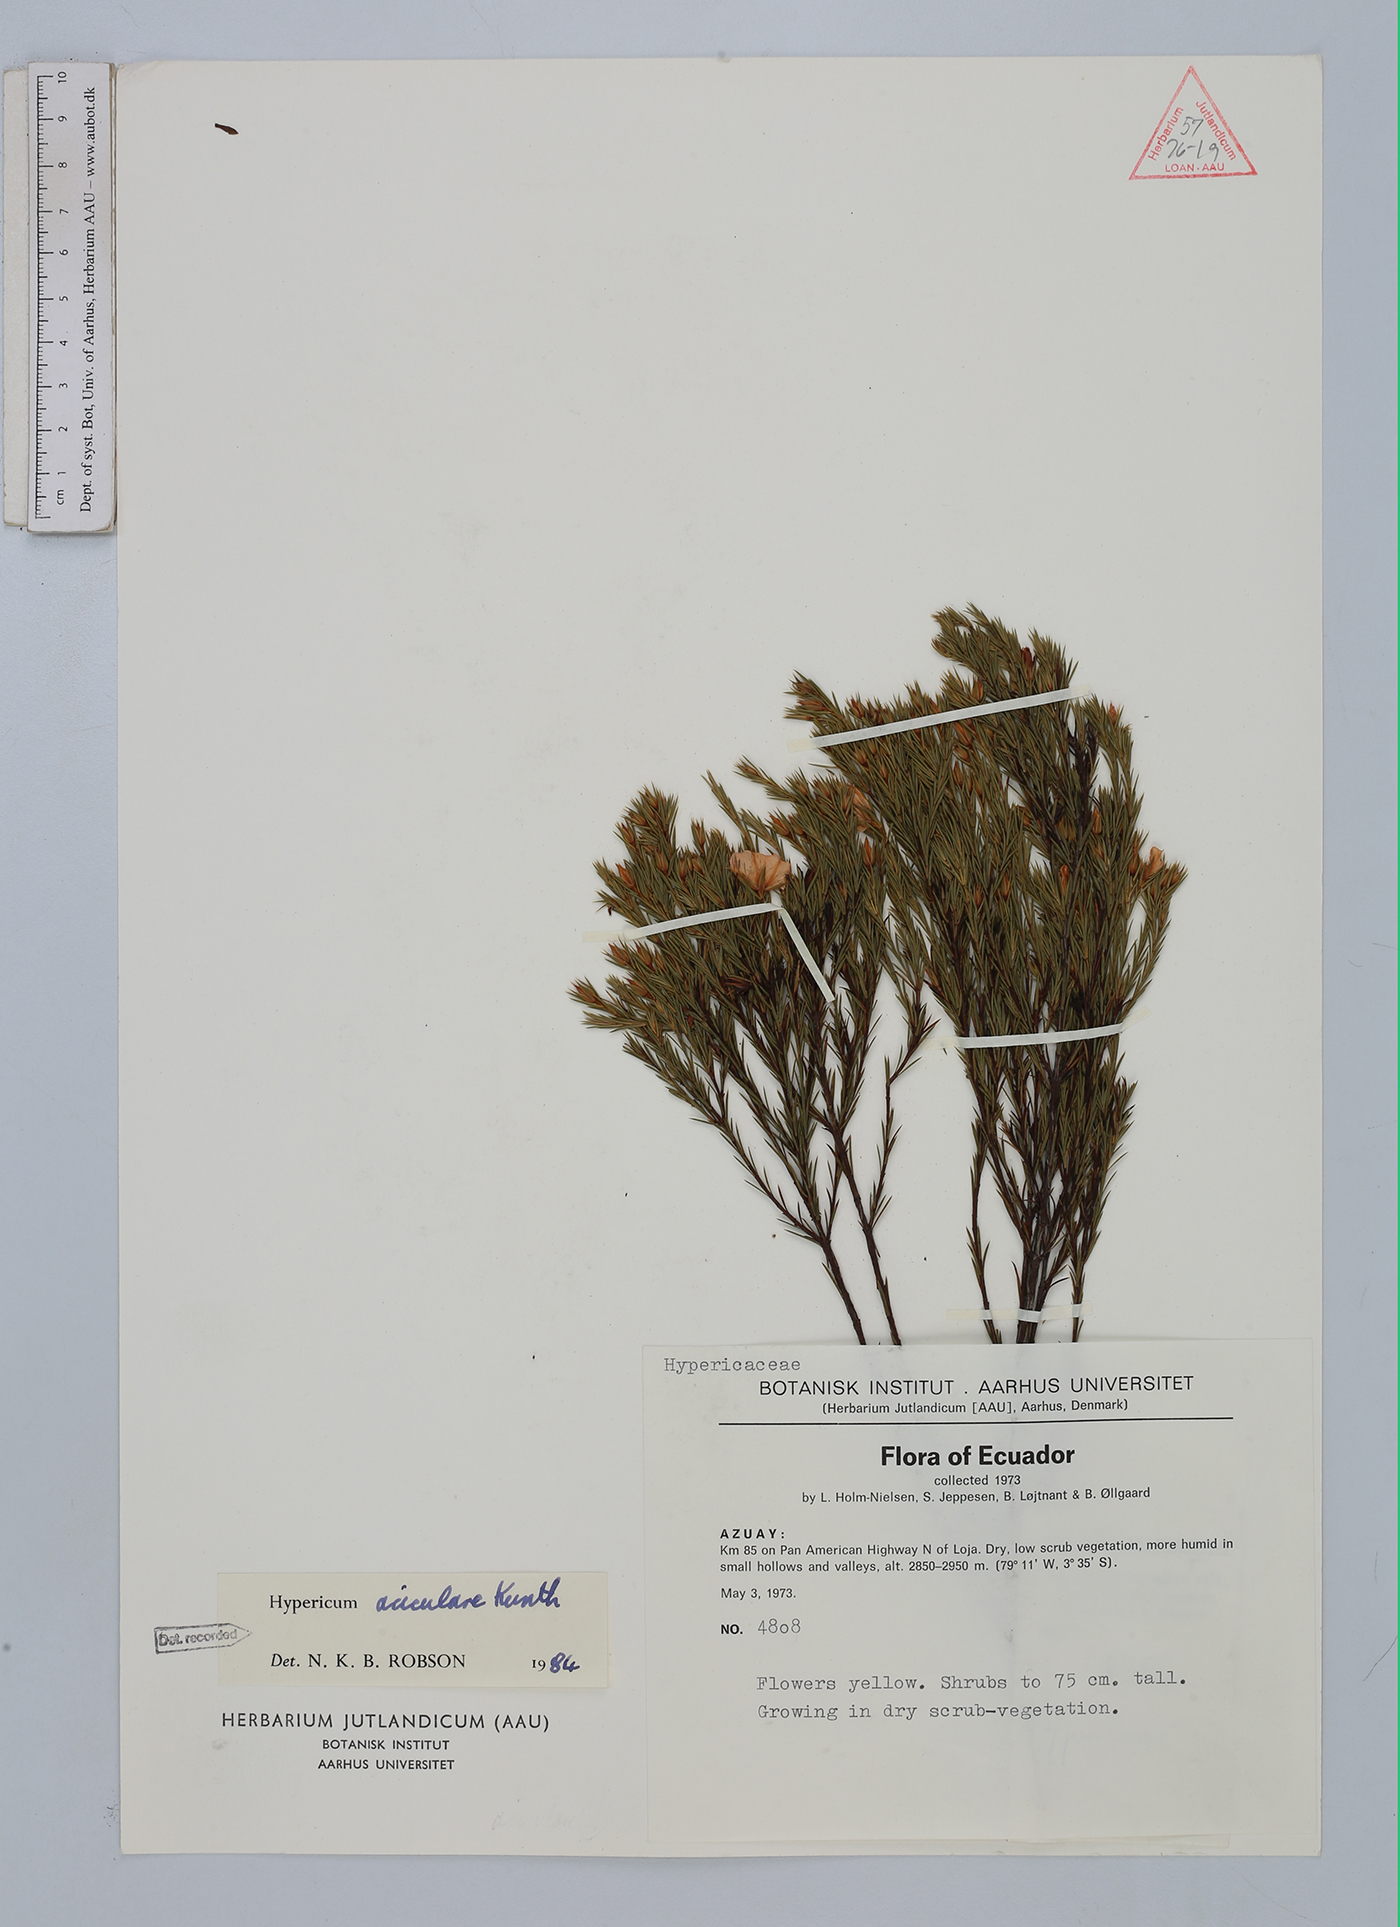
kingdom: Plantae
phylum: Tracheophyta
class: Magnoliopsida
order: Malpighiales
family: Hypericaceae
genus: Hypericum
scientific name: Hypericum aciculare
